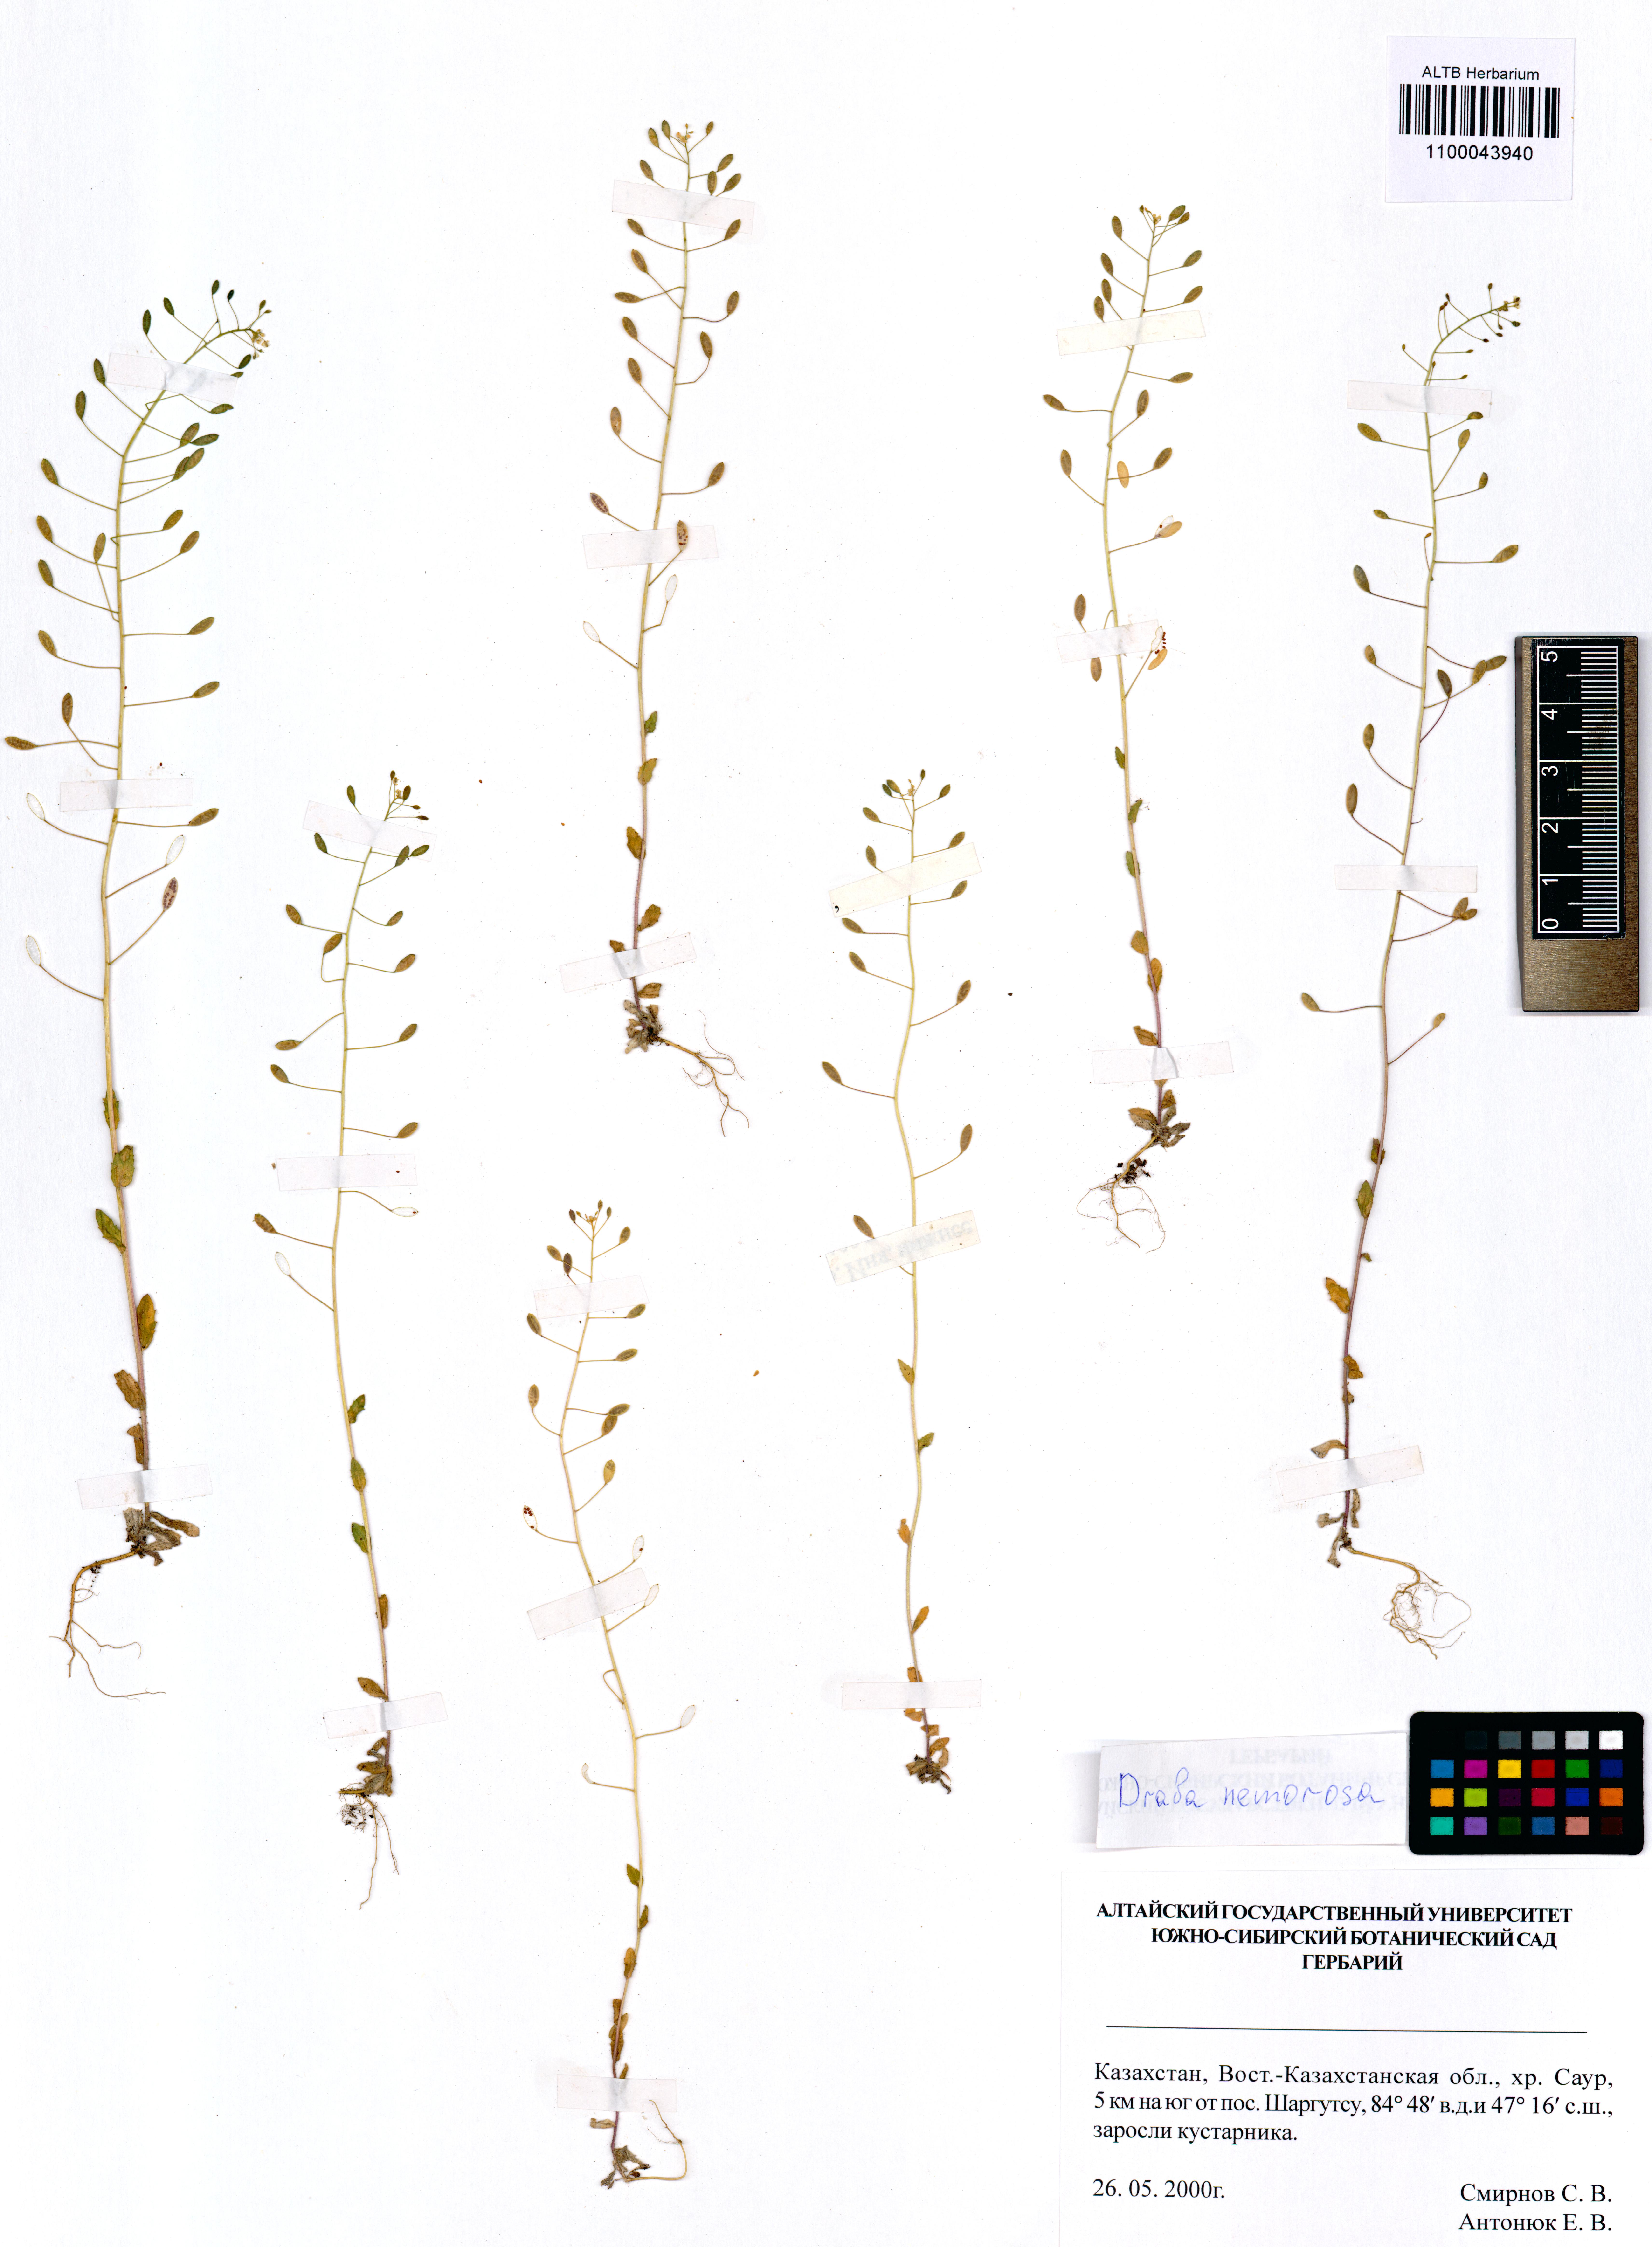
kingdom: Plantae
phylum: Tracheophyta
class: Magnoliopsida
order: Brassicales
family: Brassicaceae
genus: Draba
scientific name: Draba nemorosa
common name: Wood whitlow-grass
